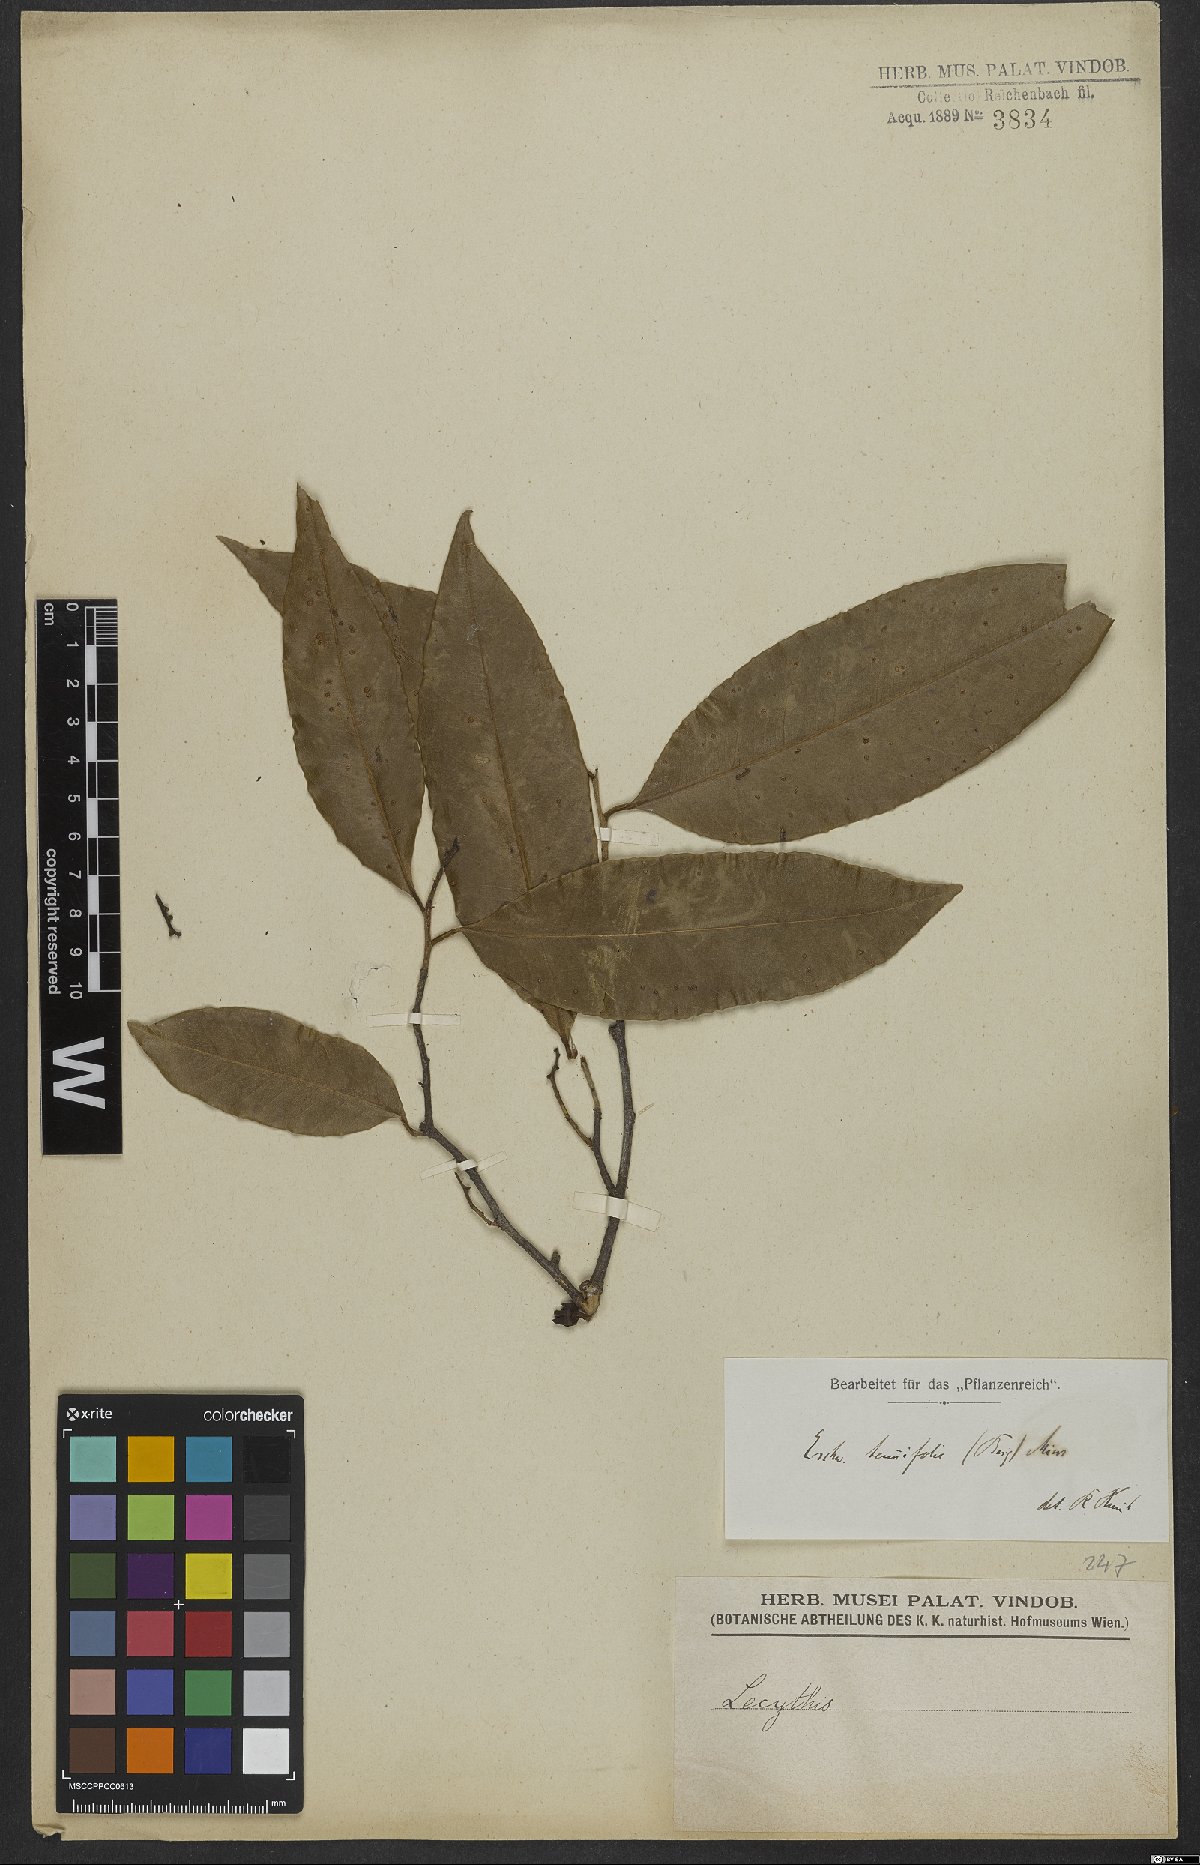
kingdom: Plantae
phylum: Tracheophyta
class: Magnoliopsida
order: Ericales
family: Lecythidaceae
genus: Eschweilera
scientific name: Eschweilera tenuifolia
